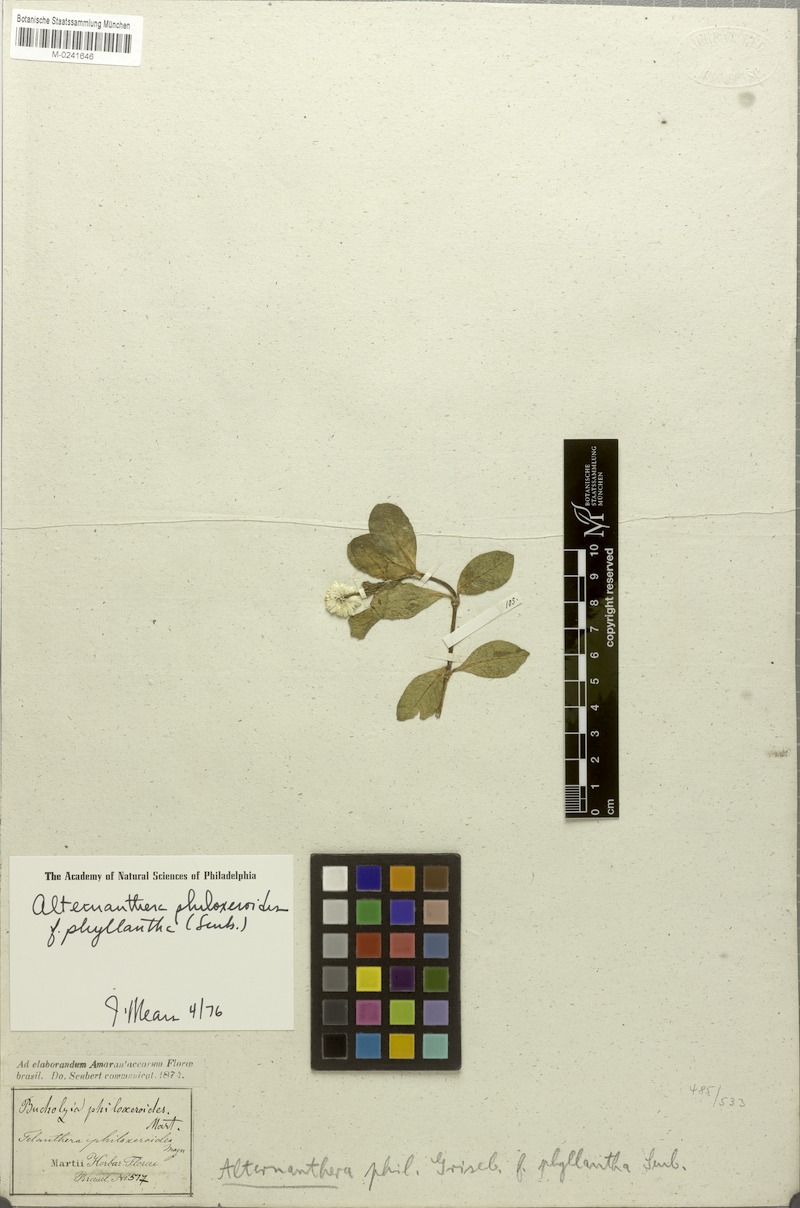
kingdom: Plantae
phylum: Tracheophyta
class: Magnoliopsida
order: Caryophyllales
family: Amaranthaceae
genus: Alternanthera
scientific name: Alternanthera philoxeroides
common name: Alligatorweed
